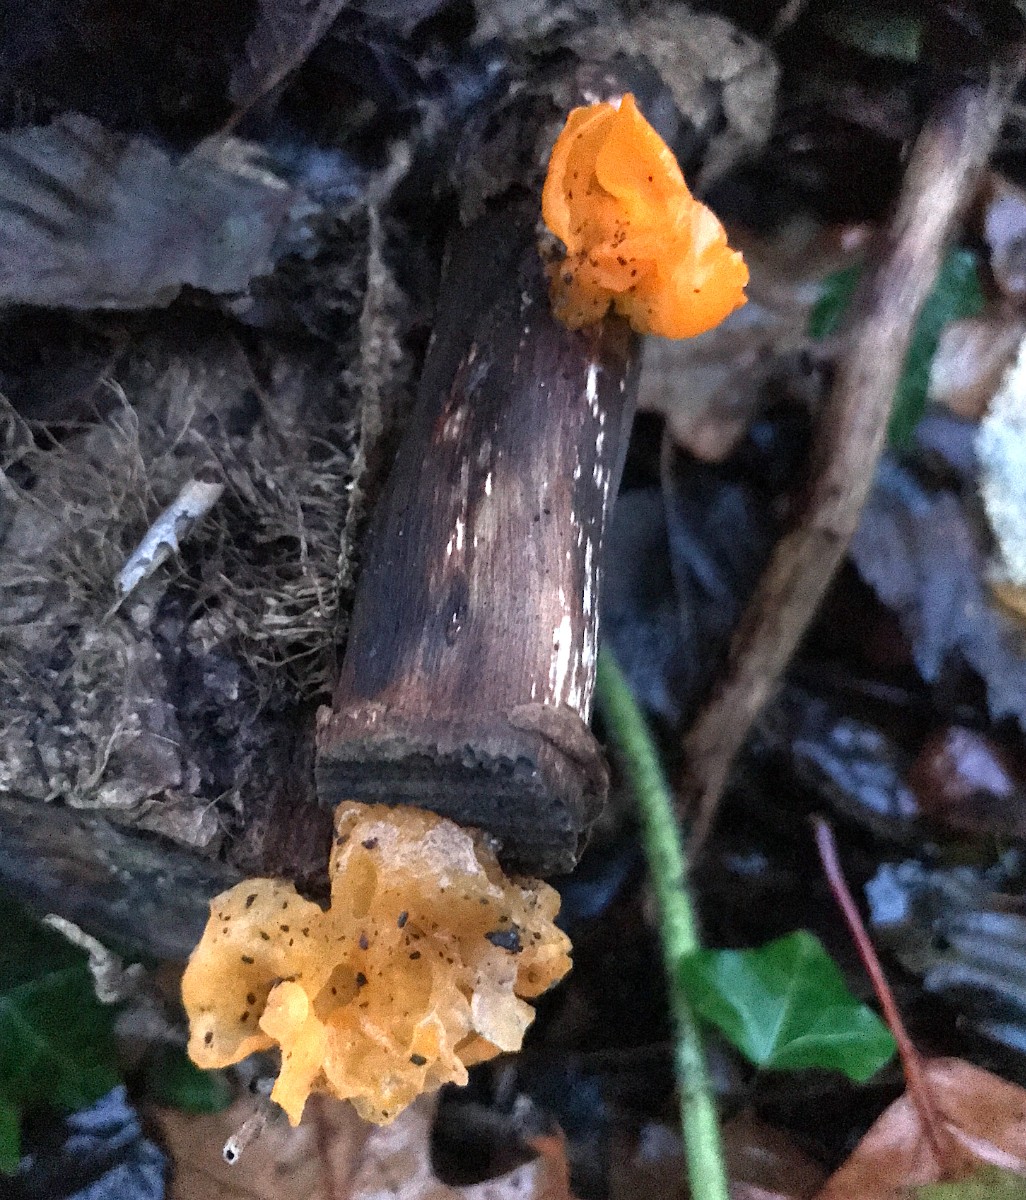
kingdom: Fungi
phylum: Basidiomycota
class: Tremellomycetes
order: Tremellales
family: Tremellaceae
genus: Tremella
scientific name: Tremella mesenterica
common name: gul bævresvamp
